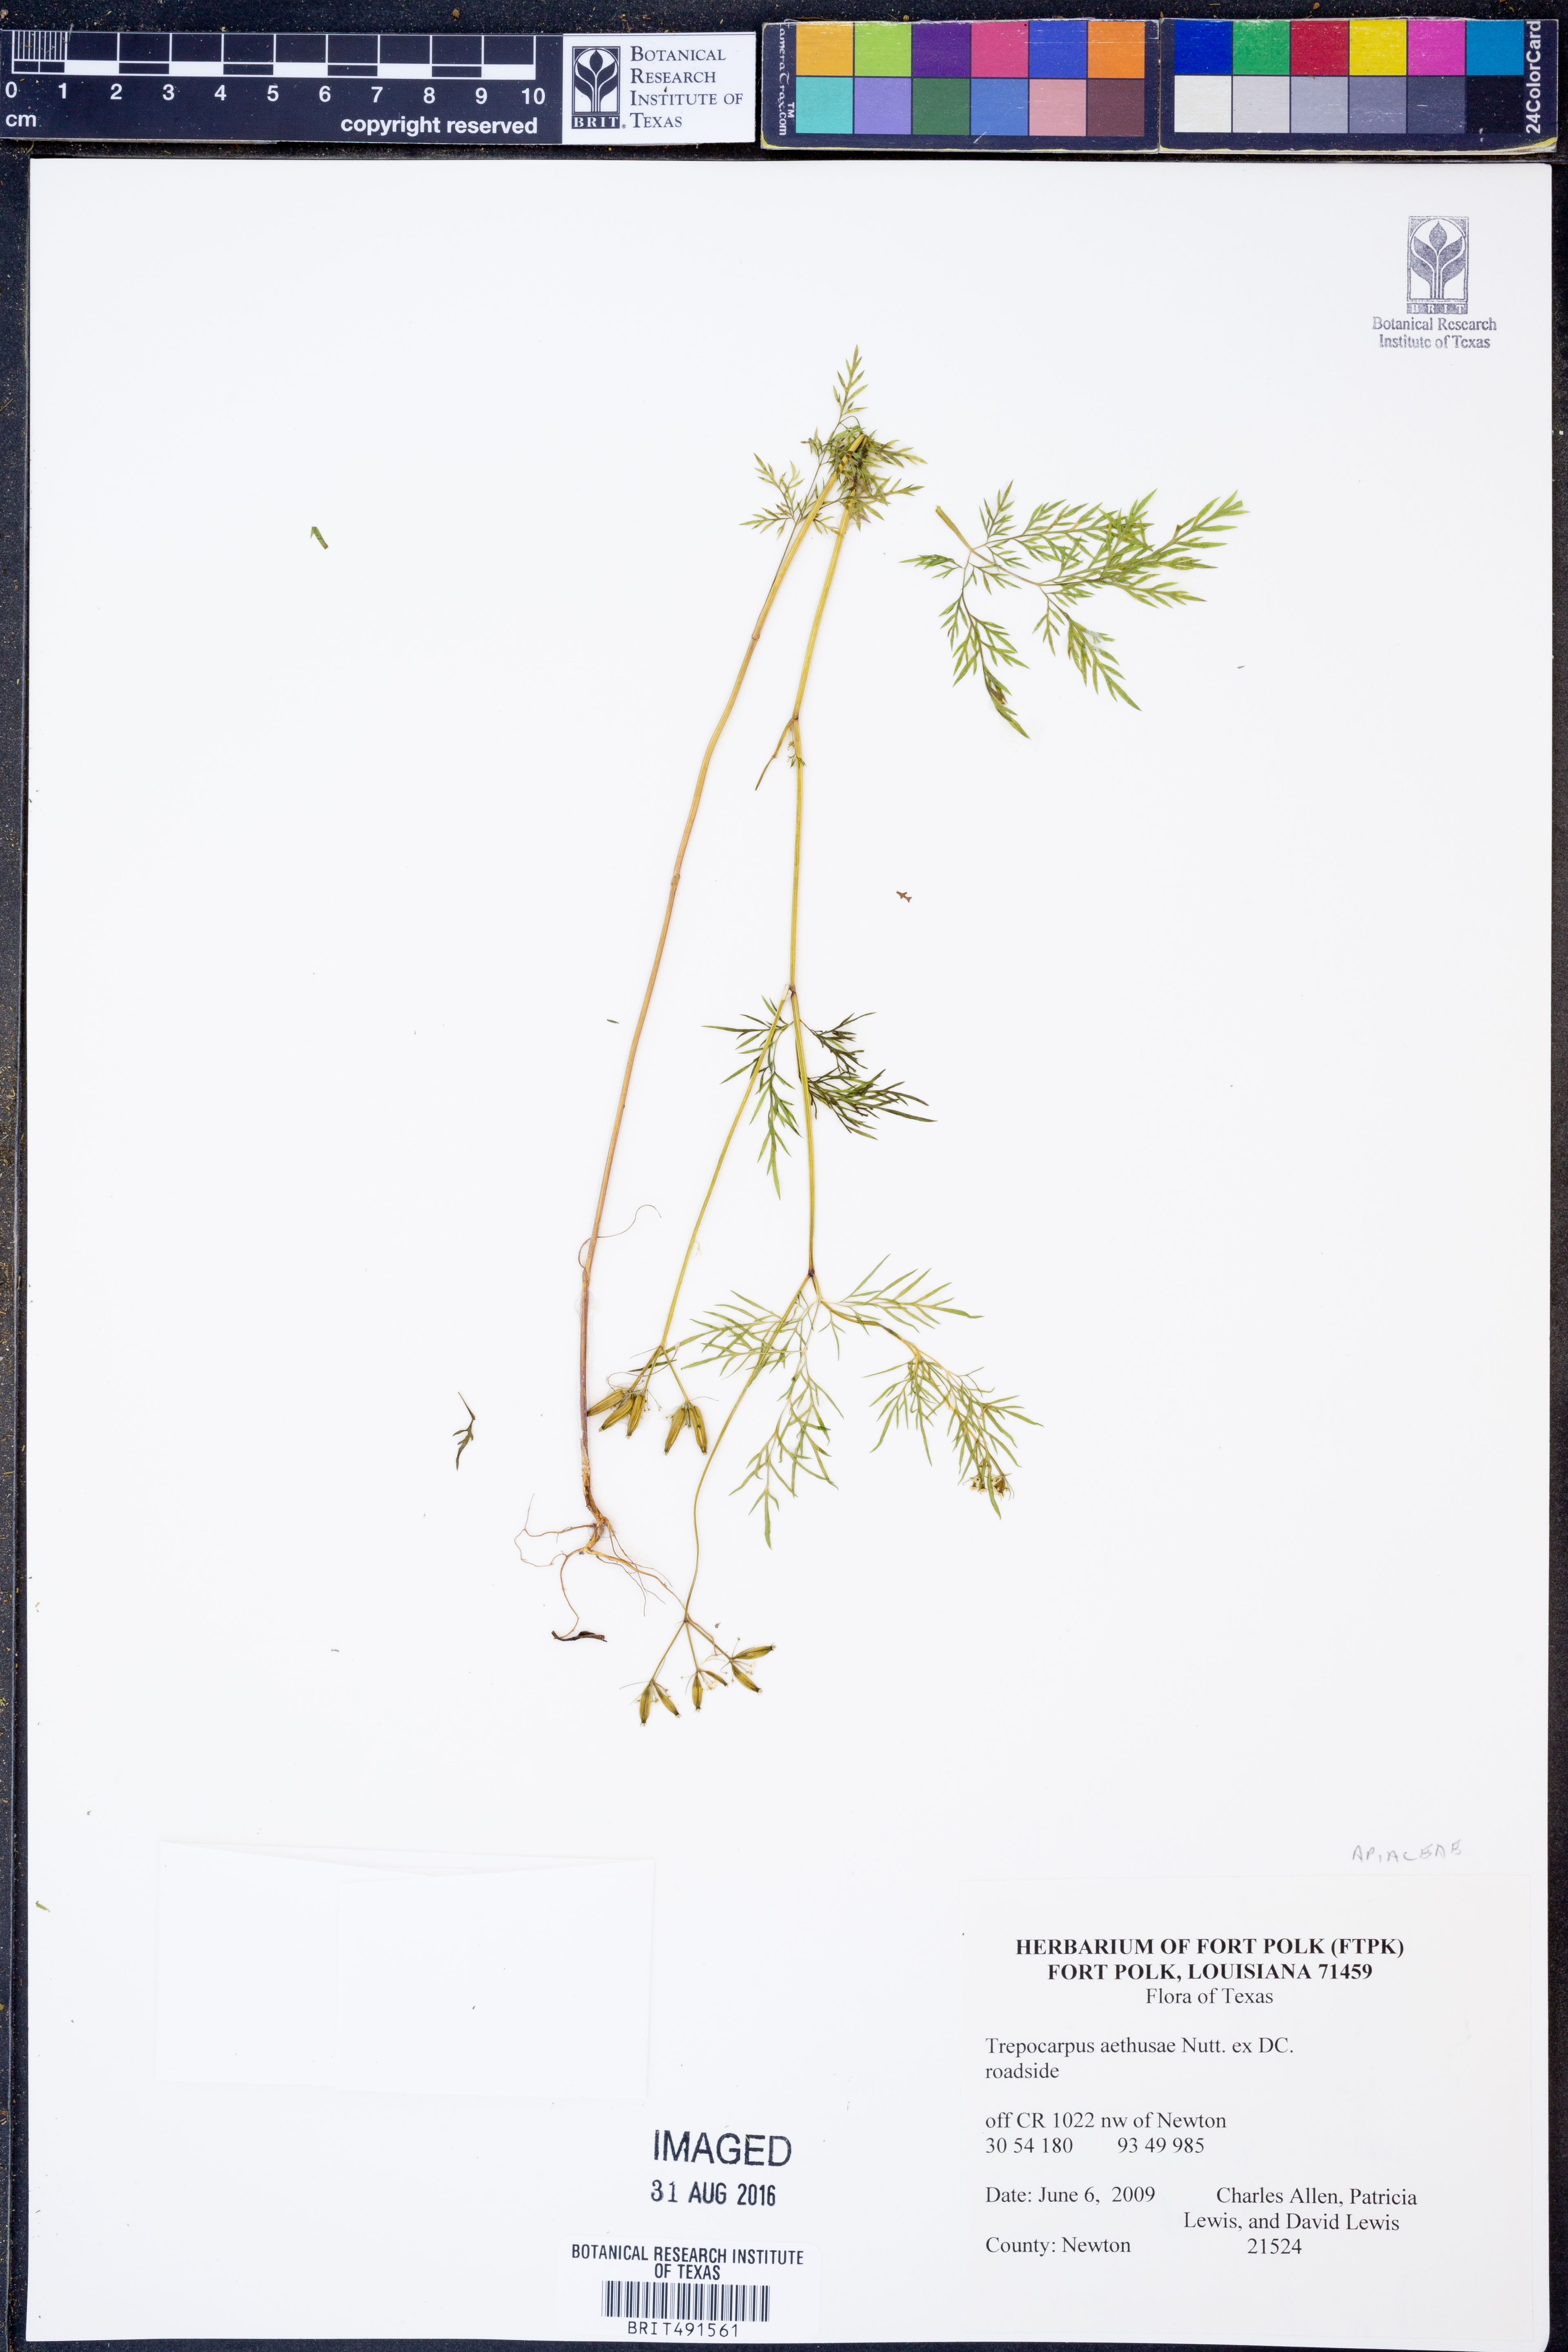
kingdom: Plantae
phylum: Tracheophyta
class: Magnoliopsida
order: Apiales
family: Apiaceae
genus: Trepocarpus
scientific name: Trepocarpus aethusae
